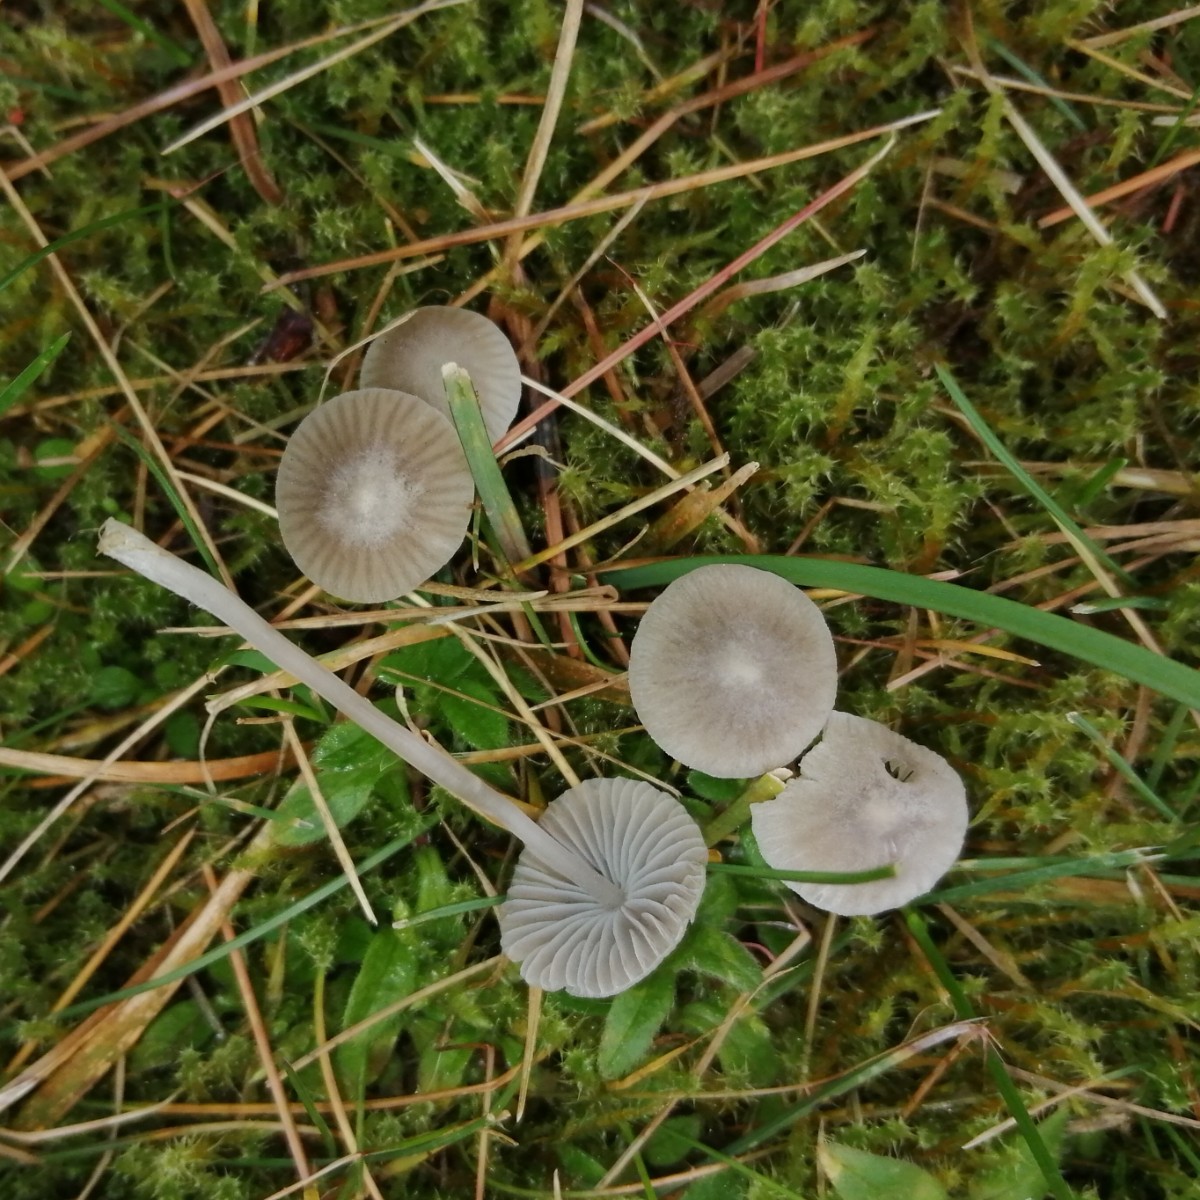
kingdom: Fungi
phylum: Basidiomycota
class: Agaricomycetes
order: Agaricales
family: Mycenaceae
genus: Mycena
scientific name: Mycena aetites
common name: plæne-huesvamp
